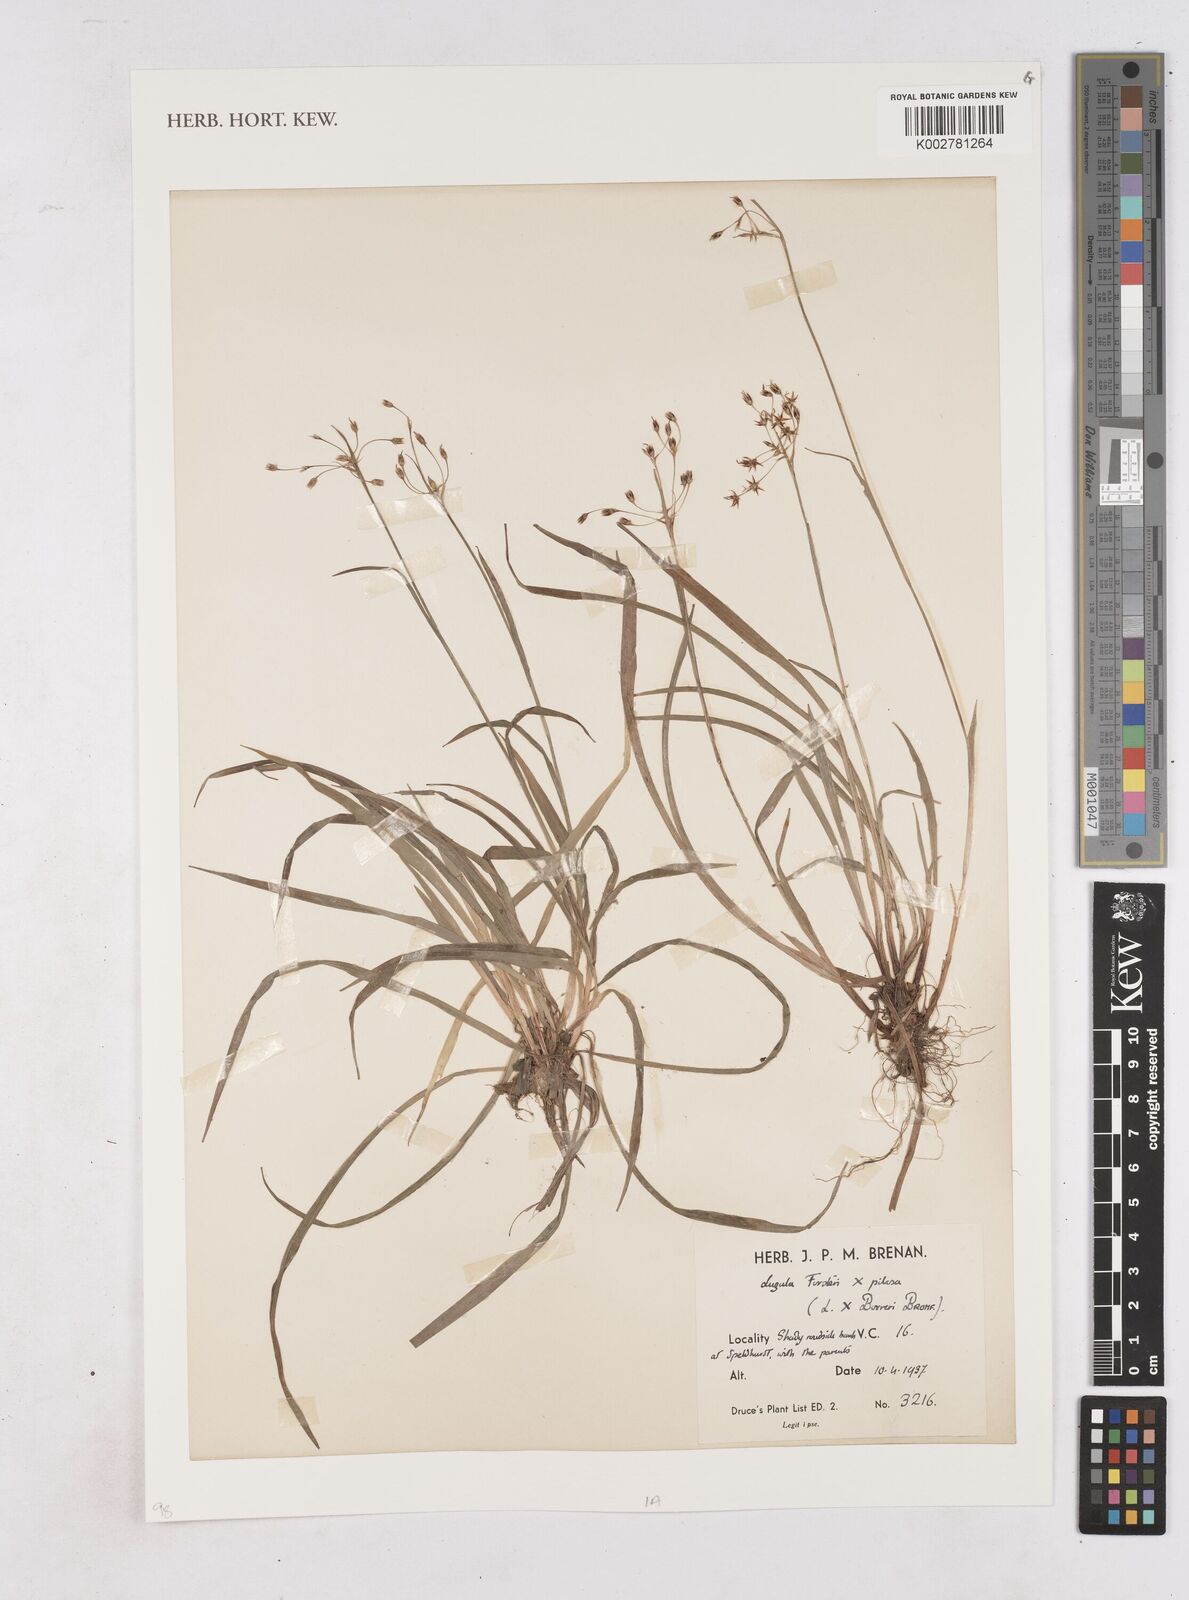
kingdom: Plantae
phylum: Tracheophyta
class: Liliopsida
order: Poales
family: Juncaceae
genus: Luzula
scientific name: Luzula borreri
